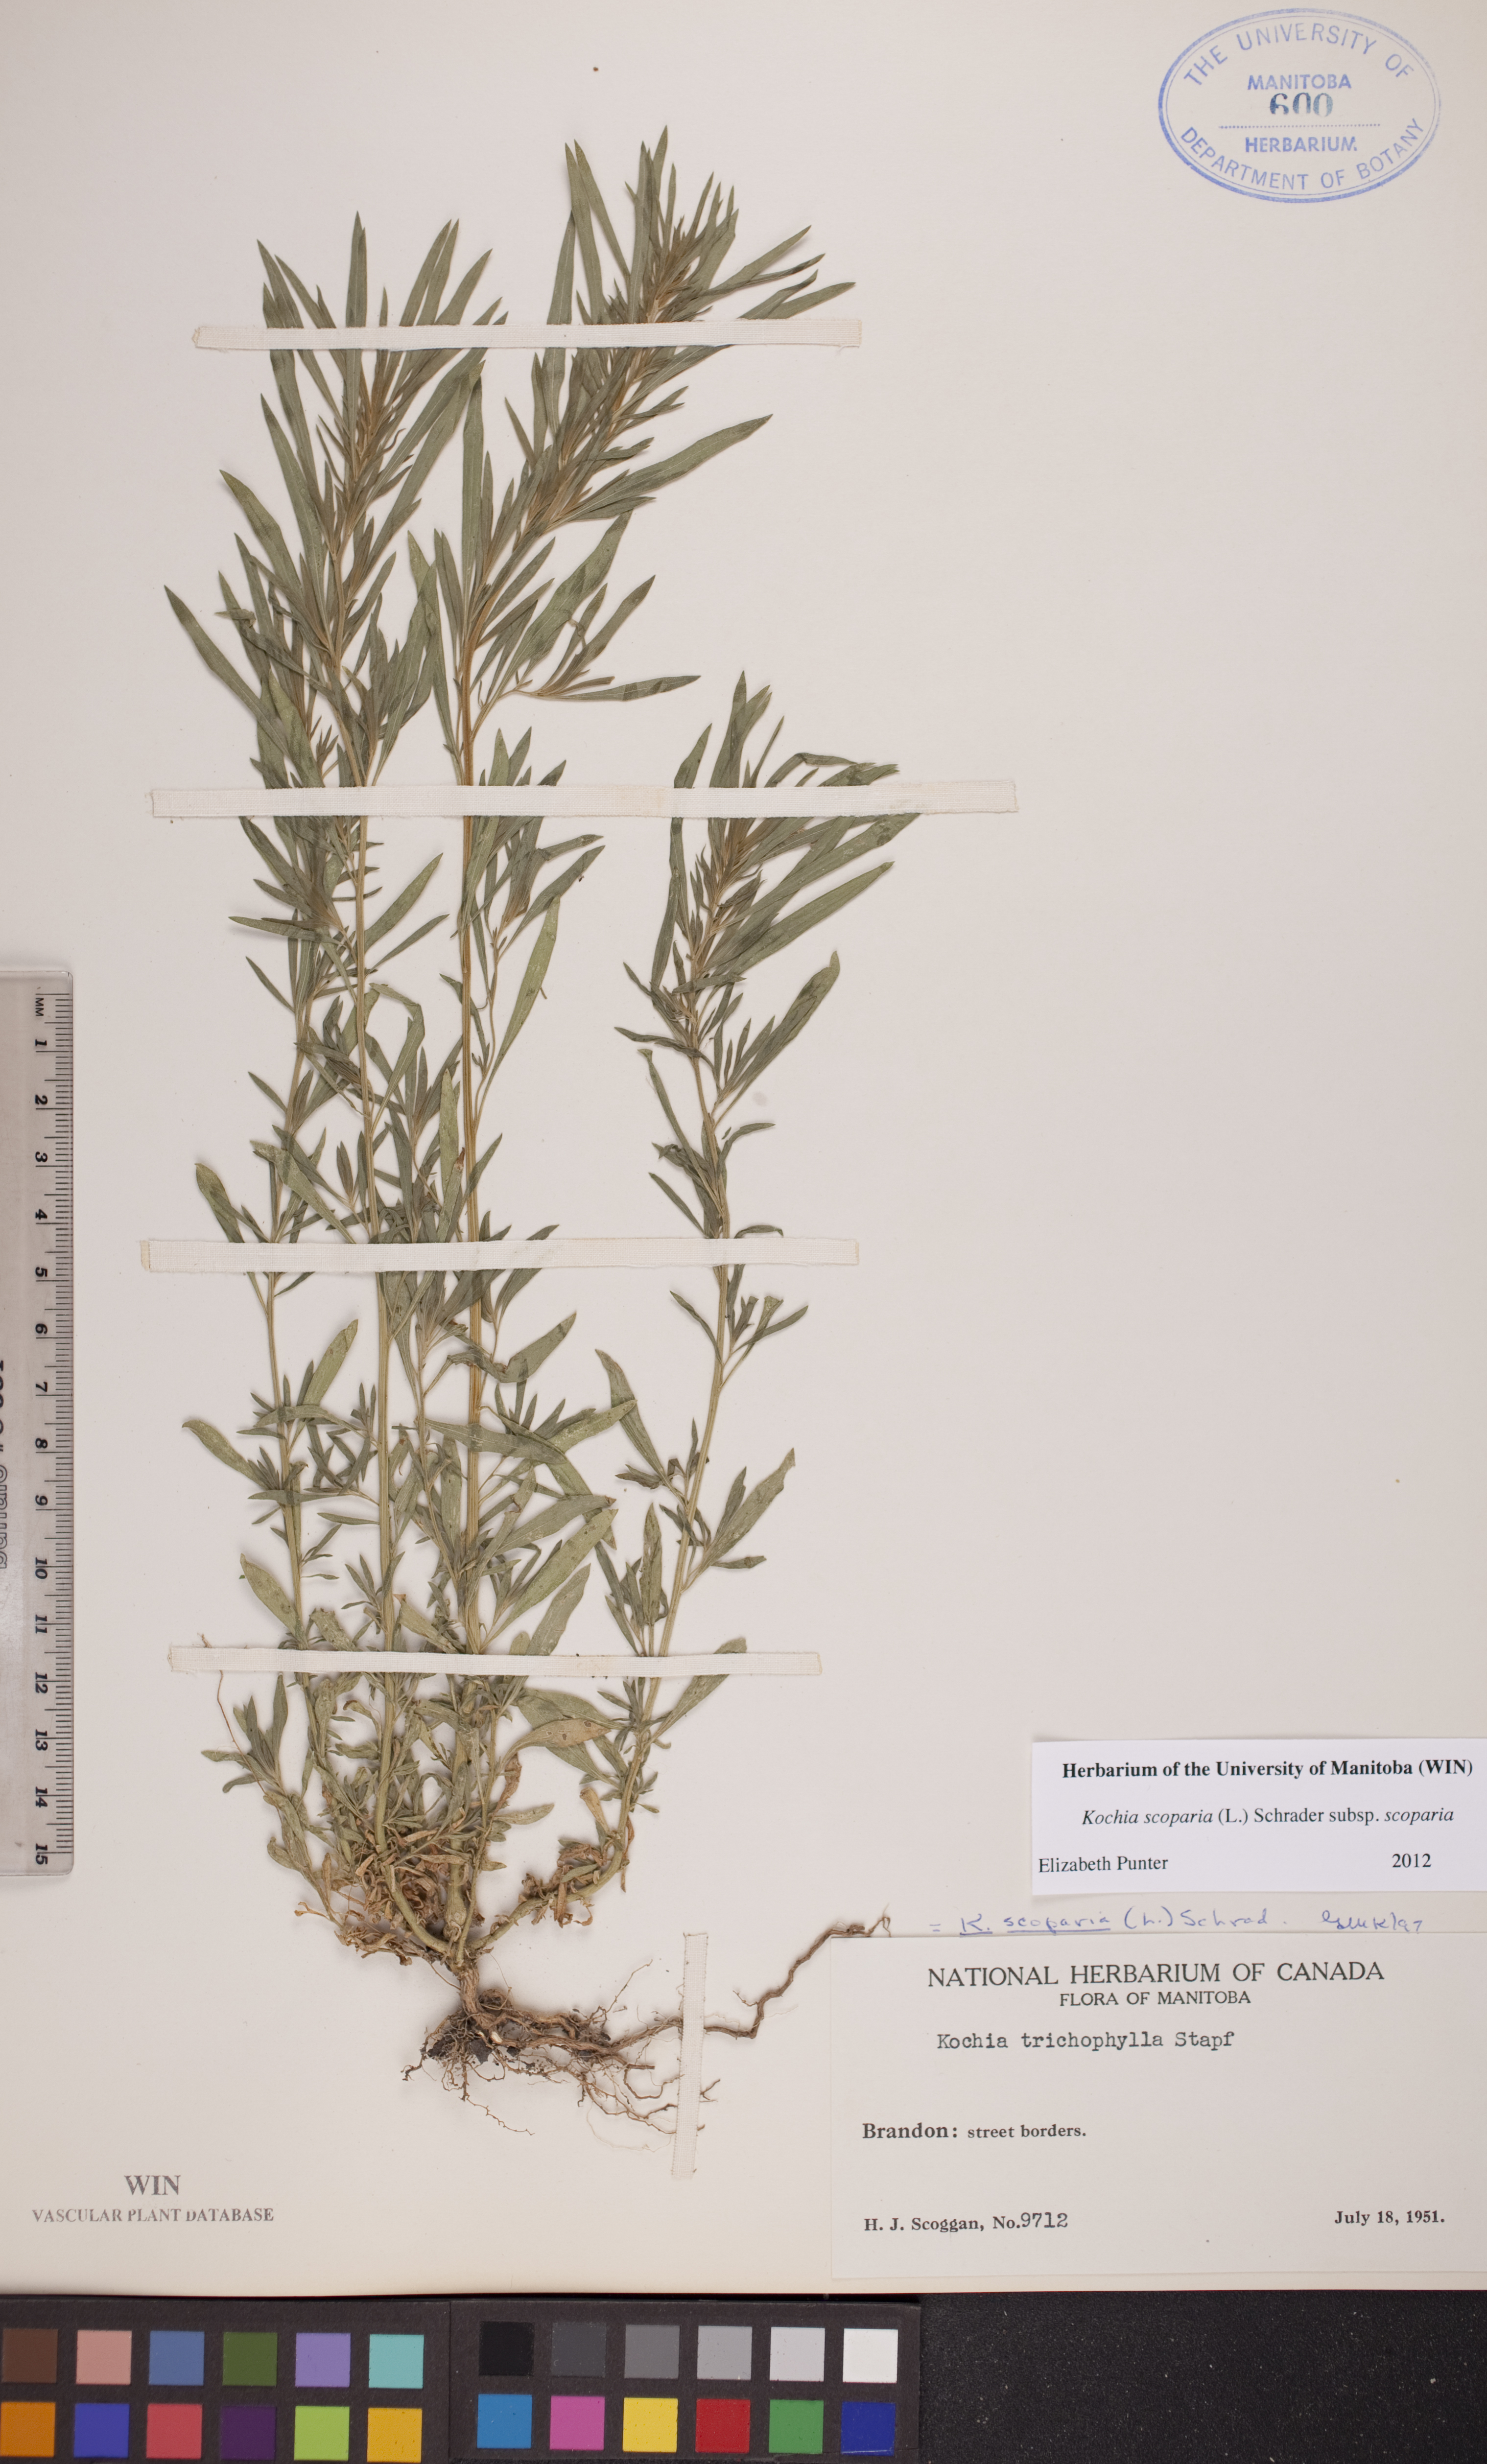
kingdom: Plantae
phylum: Tracheophyta
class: Magnoliopsida
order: Caryophyllales
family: Amaranthaceae
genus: Bassia
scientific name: Bassia scoparia
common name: Belvedere
